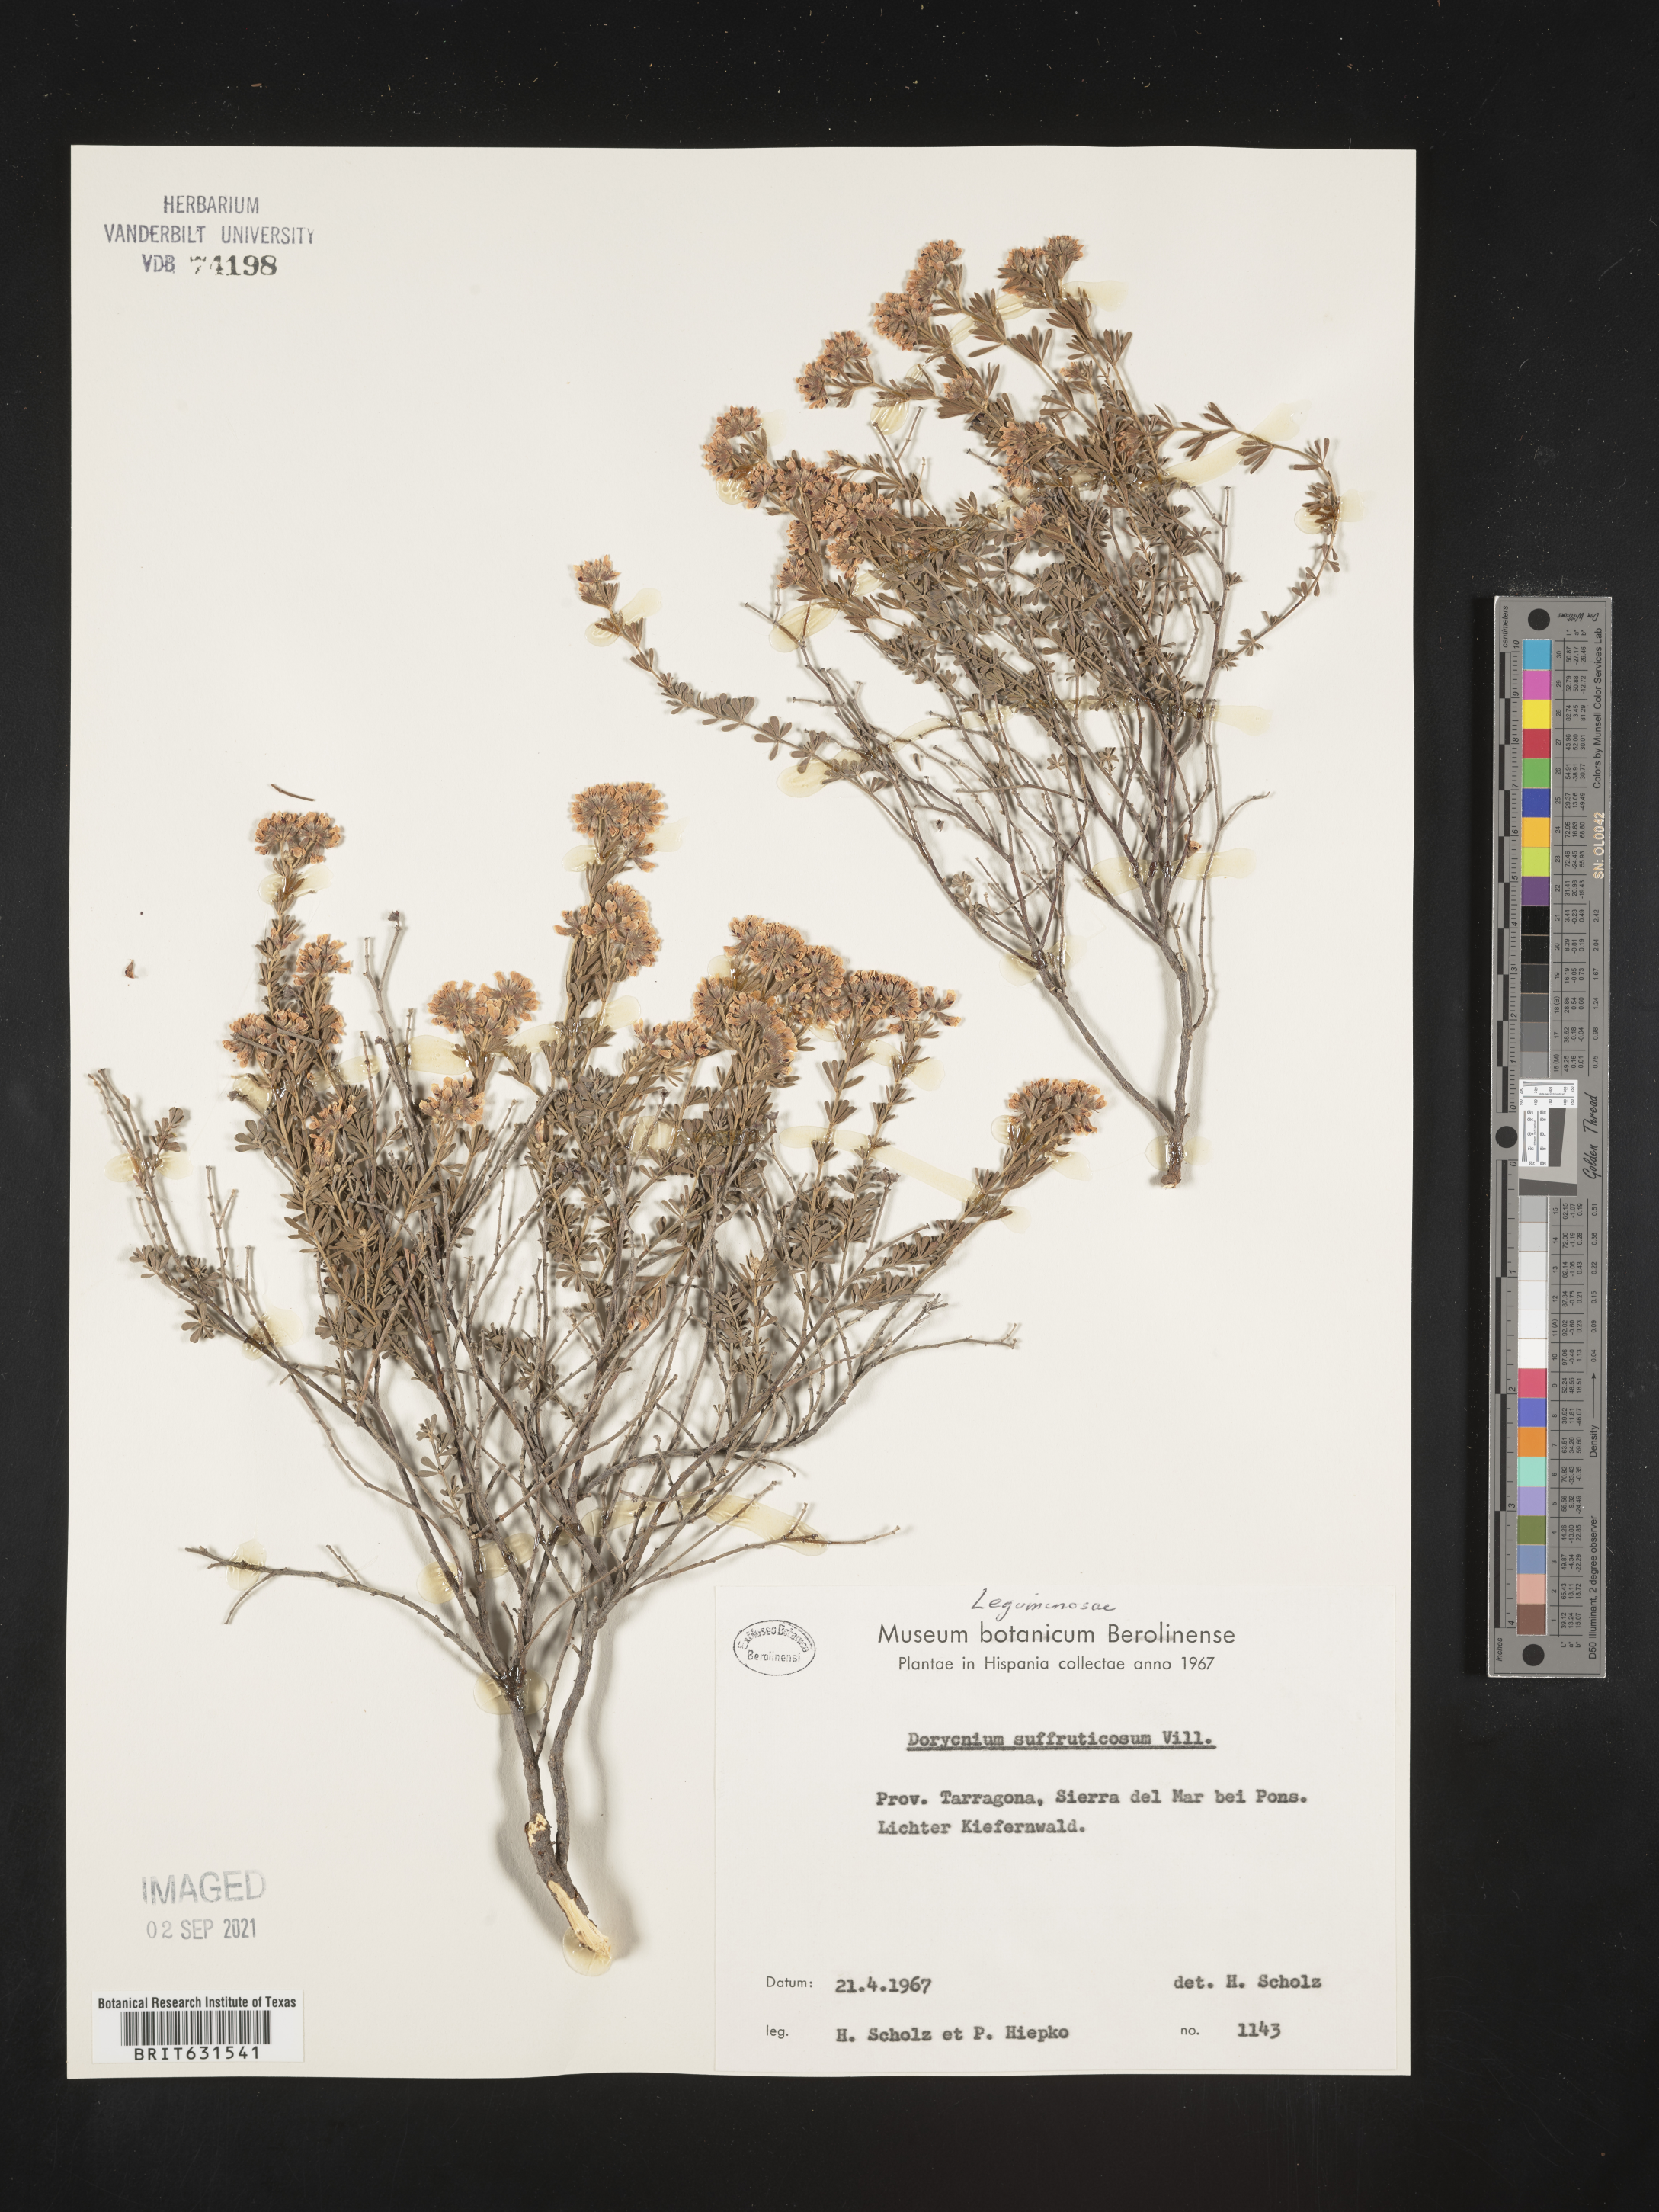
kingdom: Plantae
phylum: Tracheophyta
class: Magnoliopsida
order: Fabales
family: Fabaceae
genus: Lotus
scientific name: Lotus dorycnium
